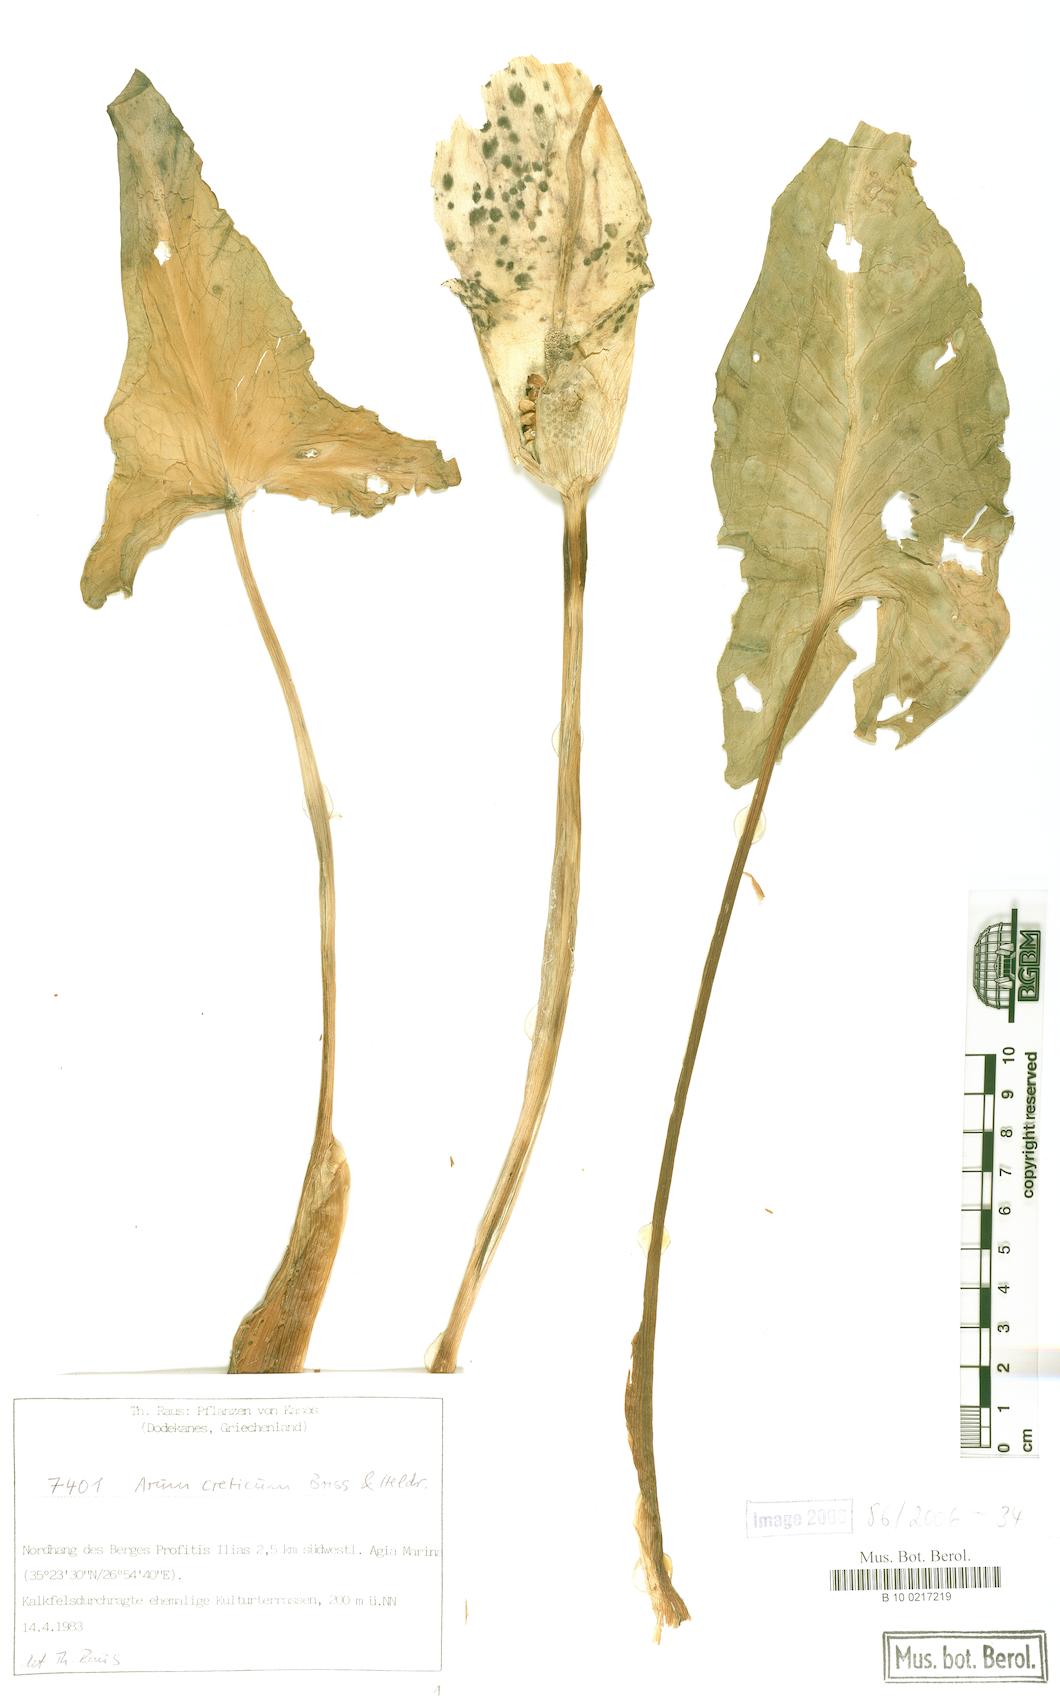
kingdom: Plantae
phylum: Tracheophyta
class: Liliopsida
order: Alismatales
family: Araceae
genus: Arum
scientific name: Arum creticum
